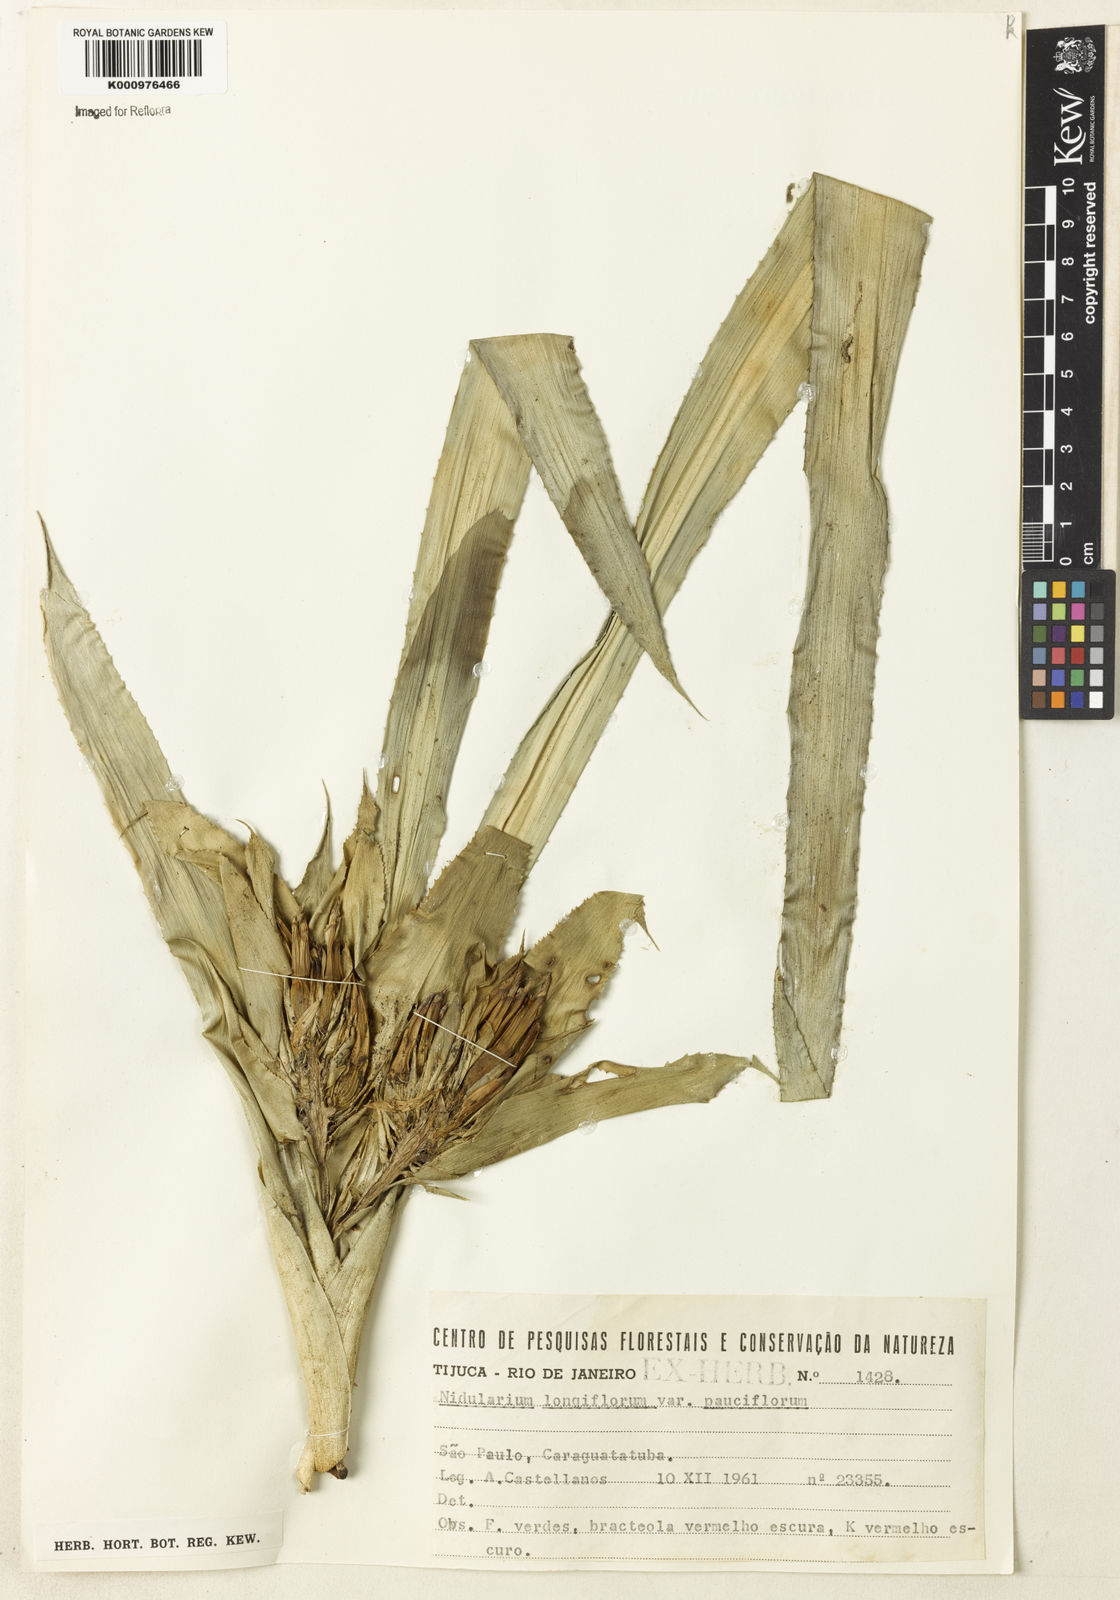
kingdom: Plantae
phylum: Tracheophyta
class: Liliopsida
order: Poales
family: Bromeliaceae
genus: Nidularium
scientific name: Nidularium longiflorum
